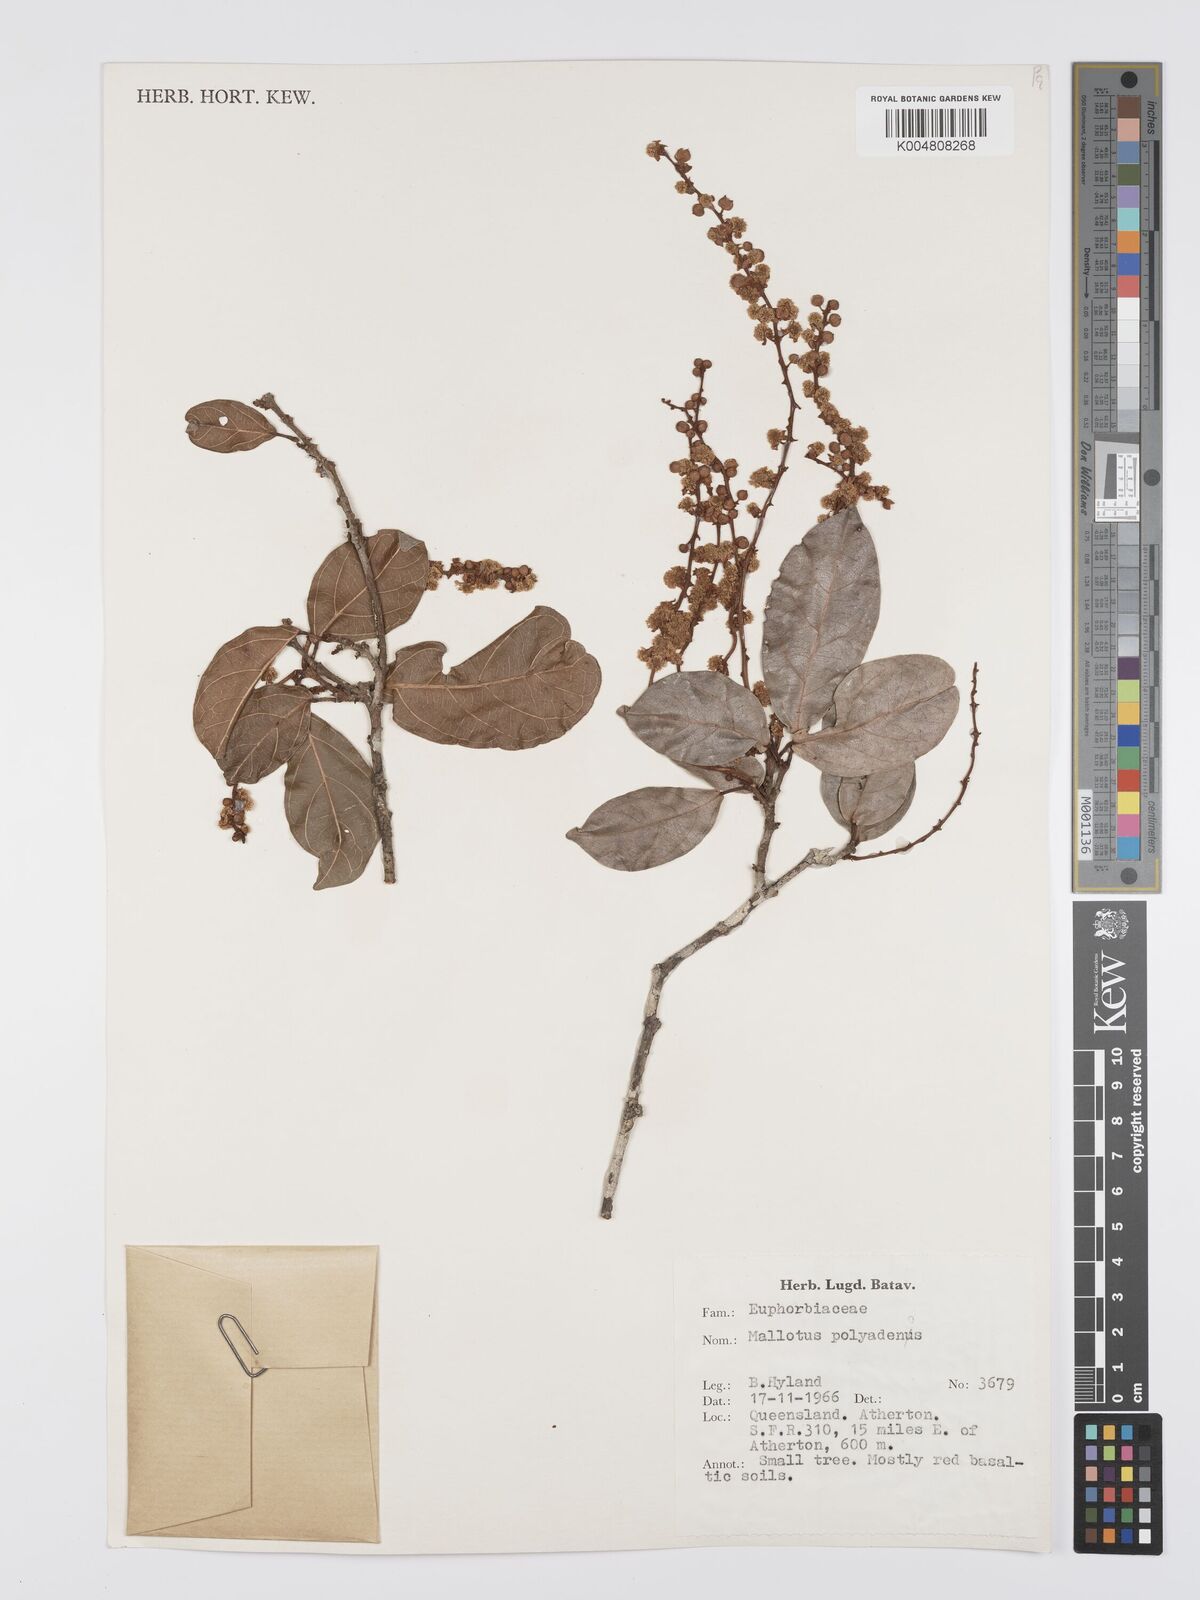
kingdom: Plantae
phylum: Tracheophyta
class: Magnoliopsida
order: Malpighiales
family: Euphorbiaceae
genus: Mallotus
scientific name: Mallotus polyadenos
